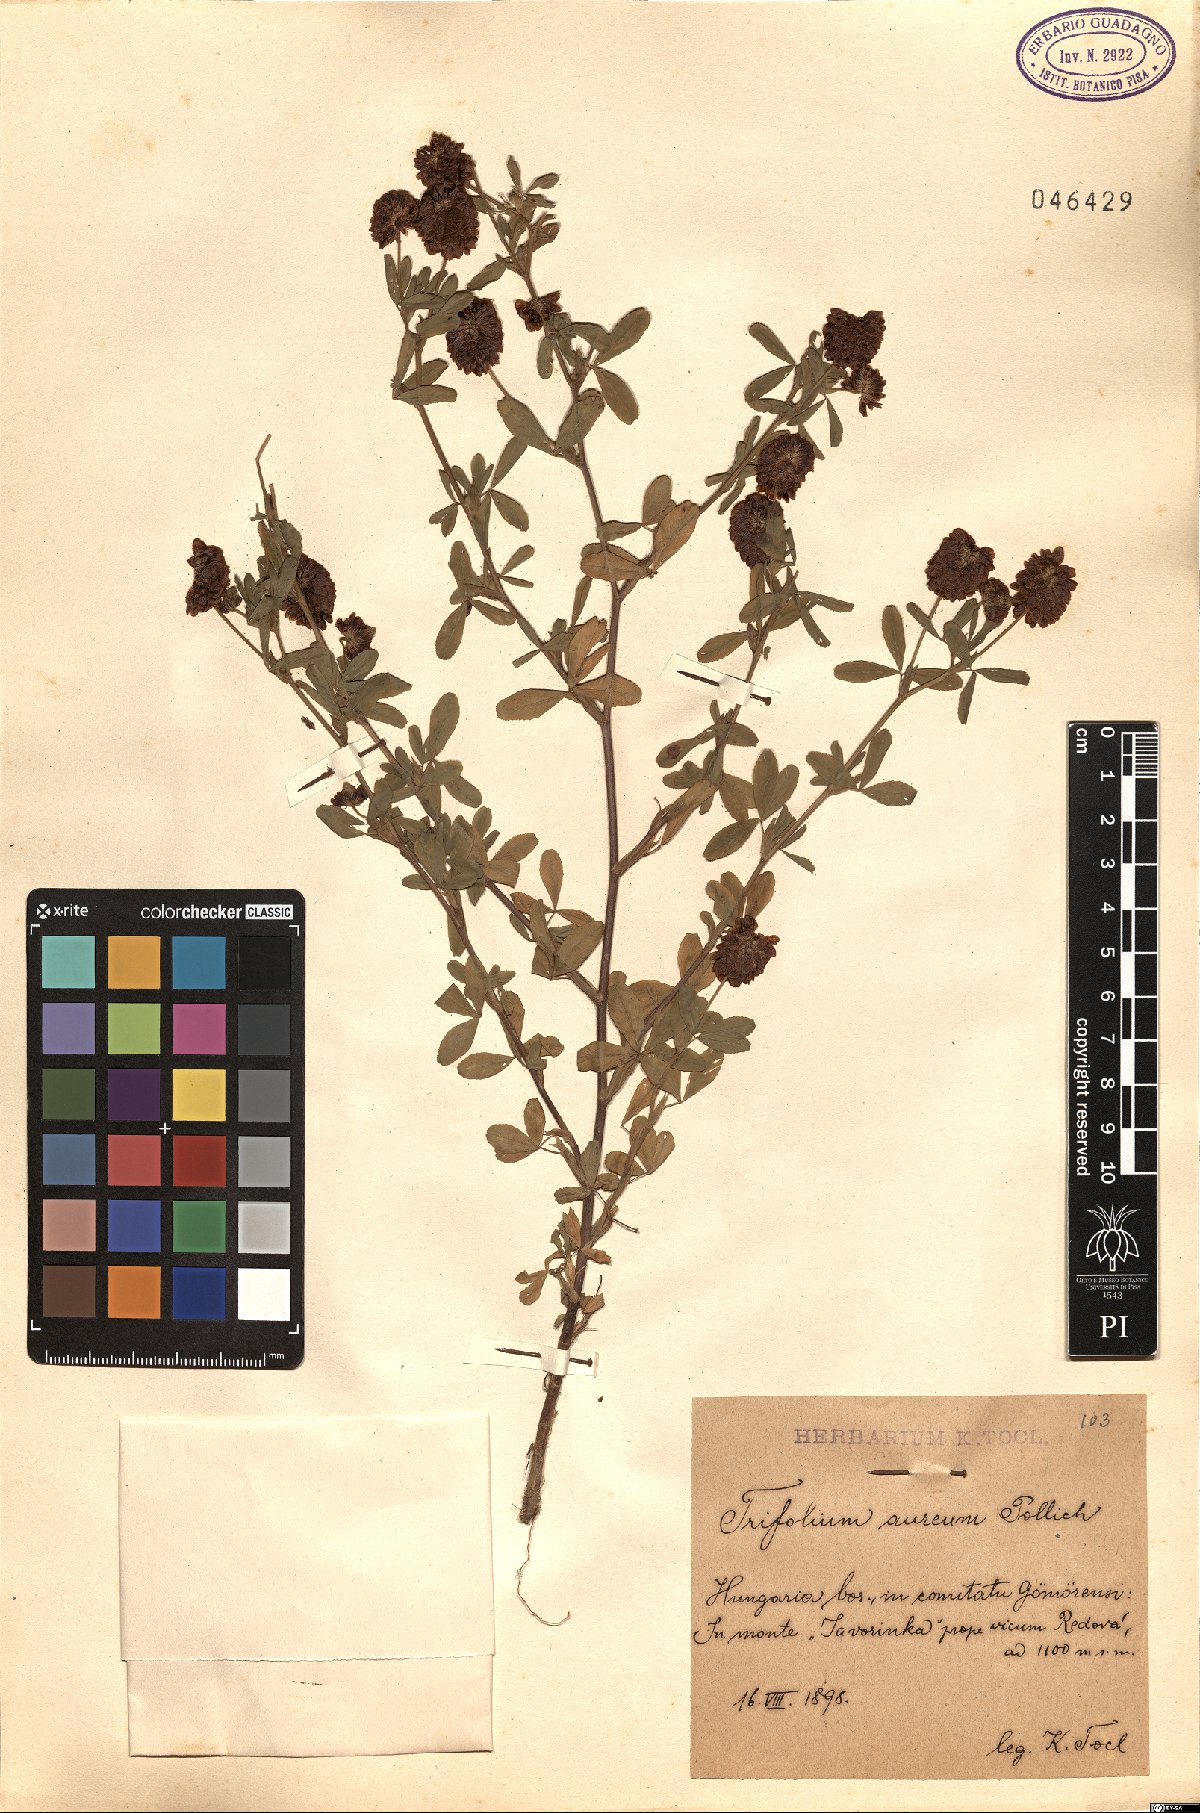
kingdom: Plantae
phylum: Tracheophyta
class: Magnoliopsida
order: Fabales
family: Fabaceae
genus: Trifolium
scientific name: Trifolium aureum
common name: Golden clover
